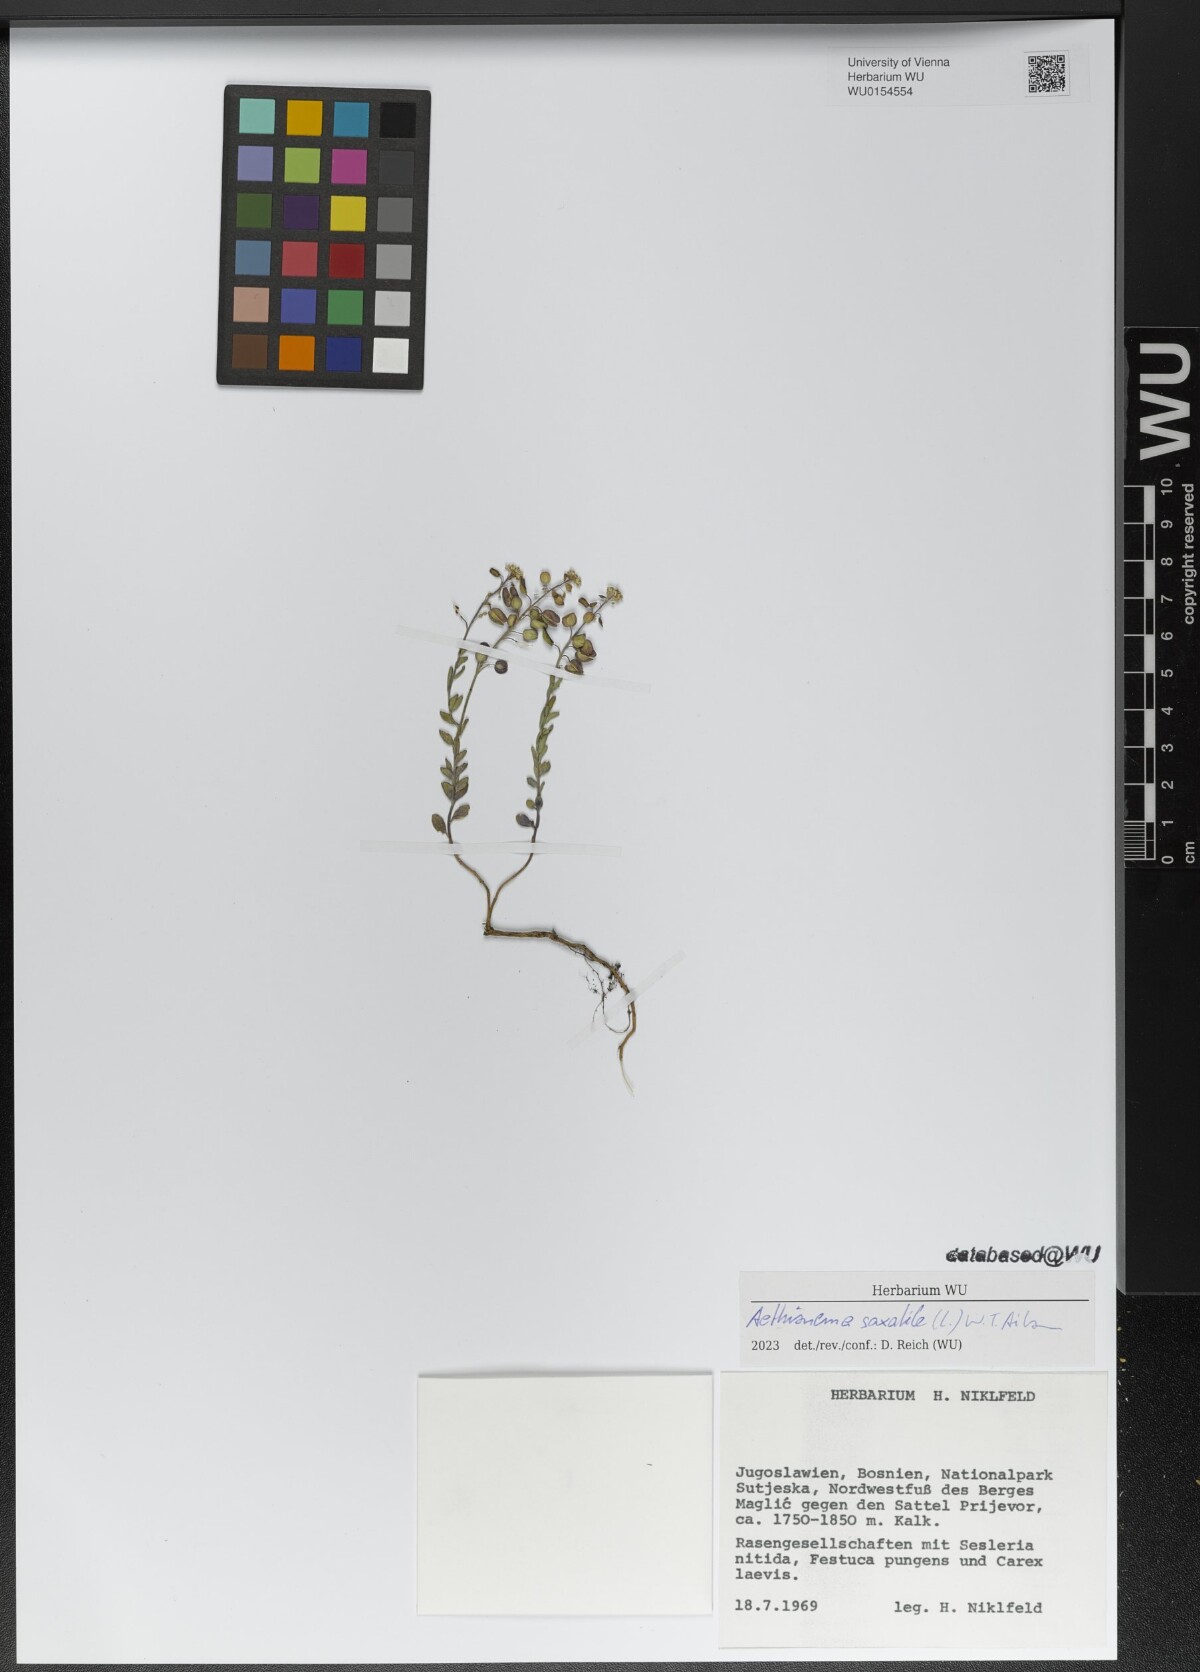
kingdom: Plantae
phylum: Tracheophyta
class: Magnoliopsida
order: Brassicales
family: Brassicaceae
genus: Aethionema
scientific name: Aethionema saxatile
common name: Burnt candytuft
